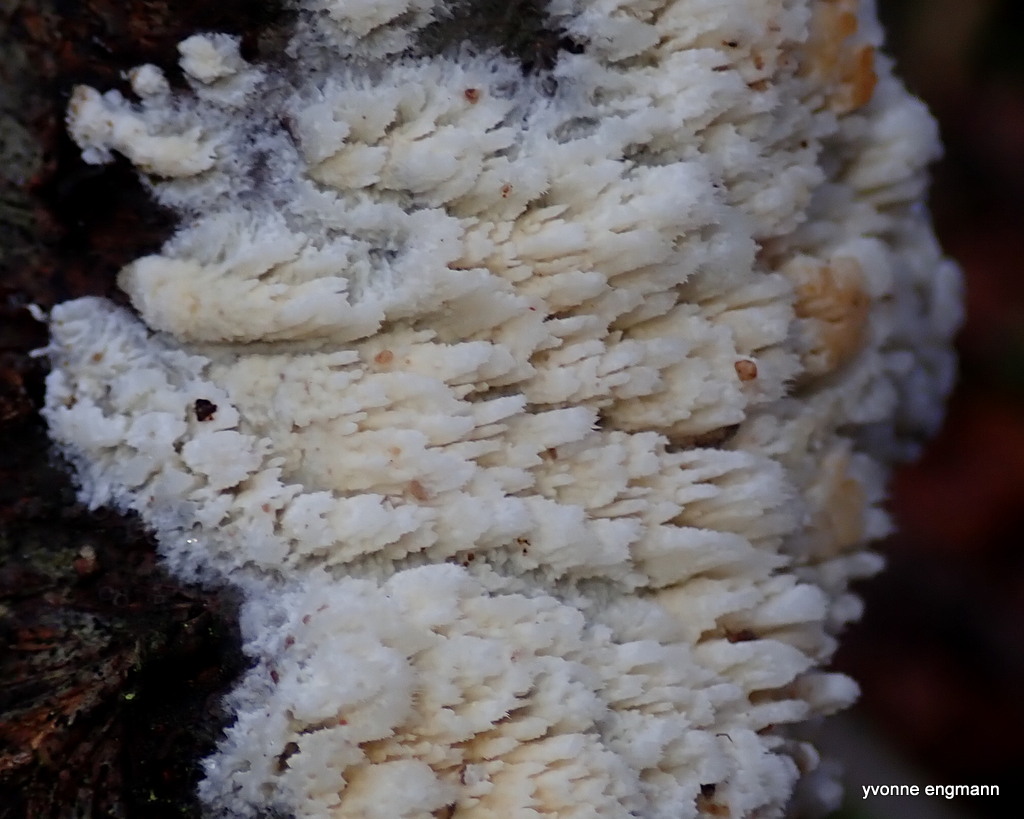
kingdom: Fungi
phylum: Basidiomycota
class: Agaricomycetes
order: Hymenochaetales
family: Schizoporaceae
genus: Xylodon
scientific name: Xylodon
